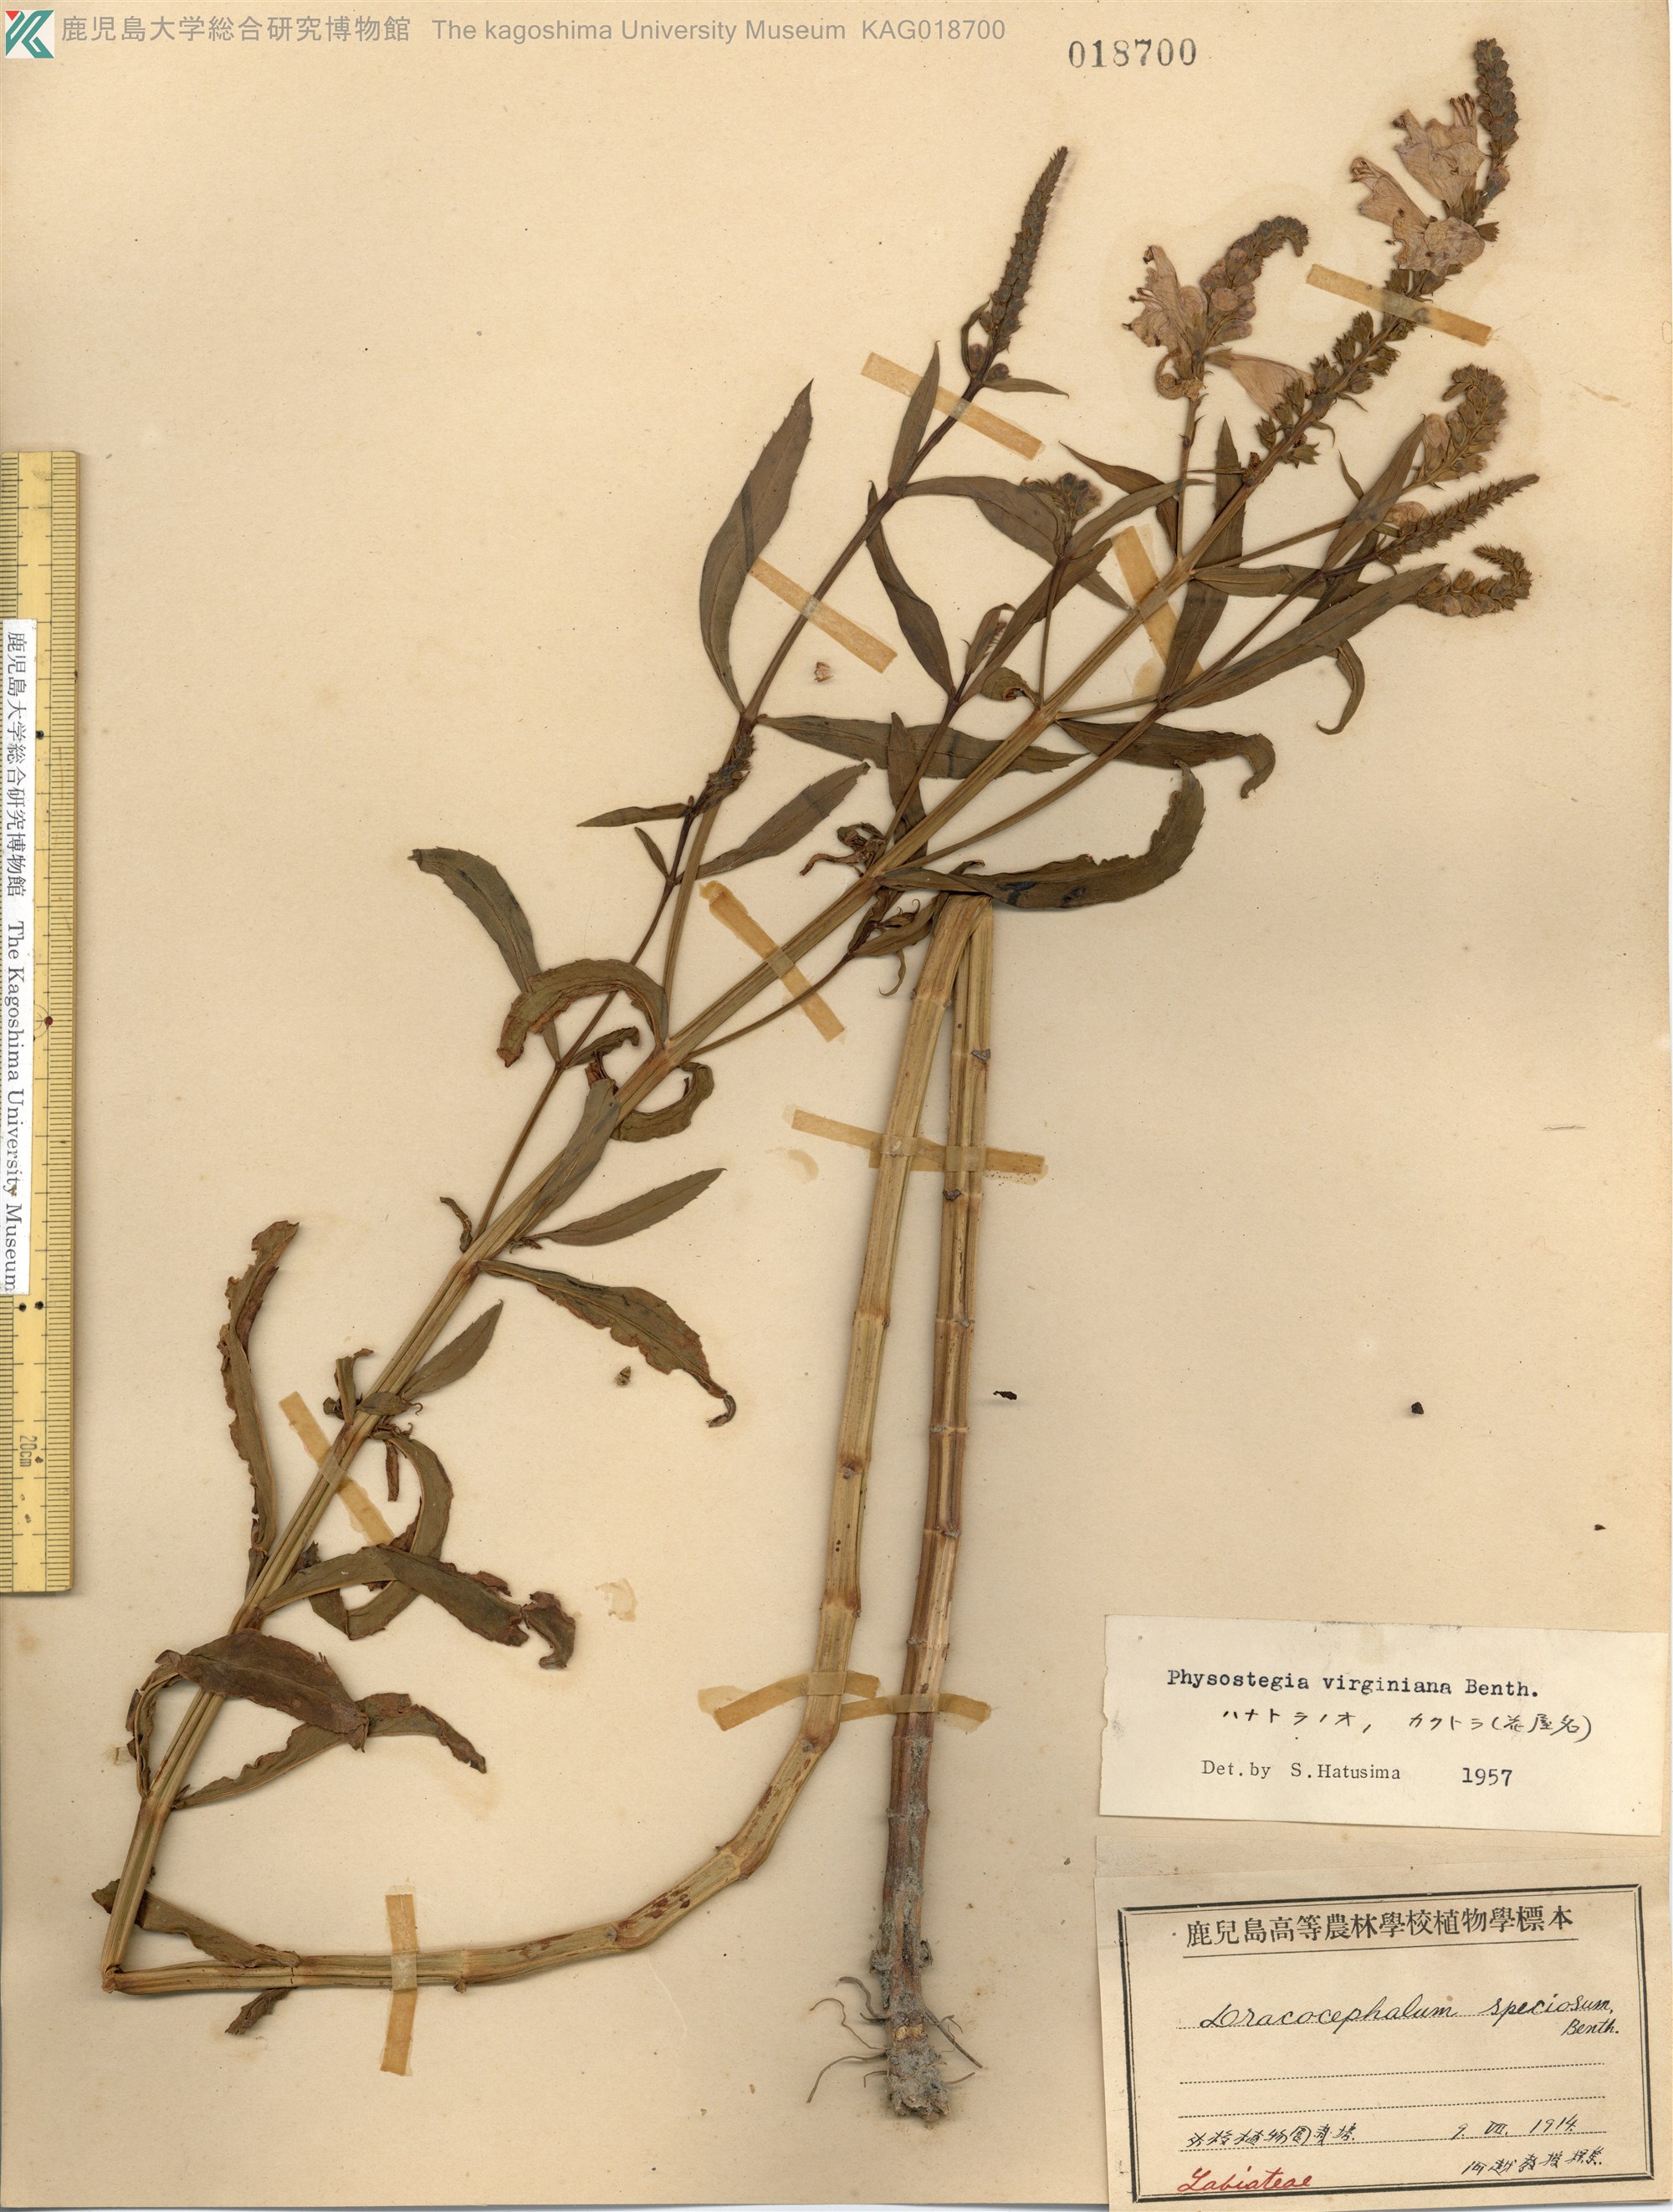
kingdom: Plantae
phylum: Tracheophyta
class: Magnoliopsida
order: Lamiales
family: Lamiaceae
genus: Physostegia
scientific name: Physostegia virginiana
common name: Obedient-plant
